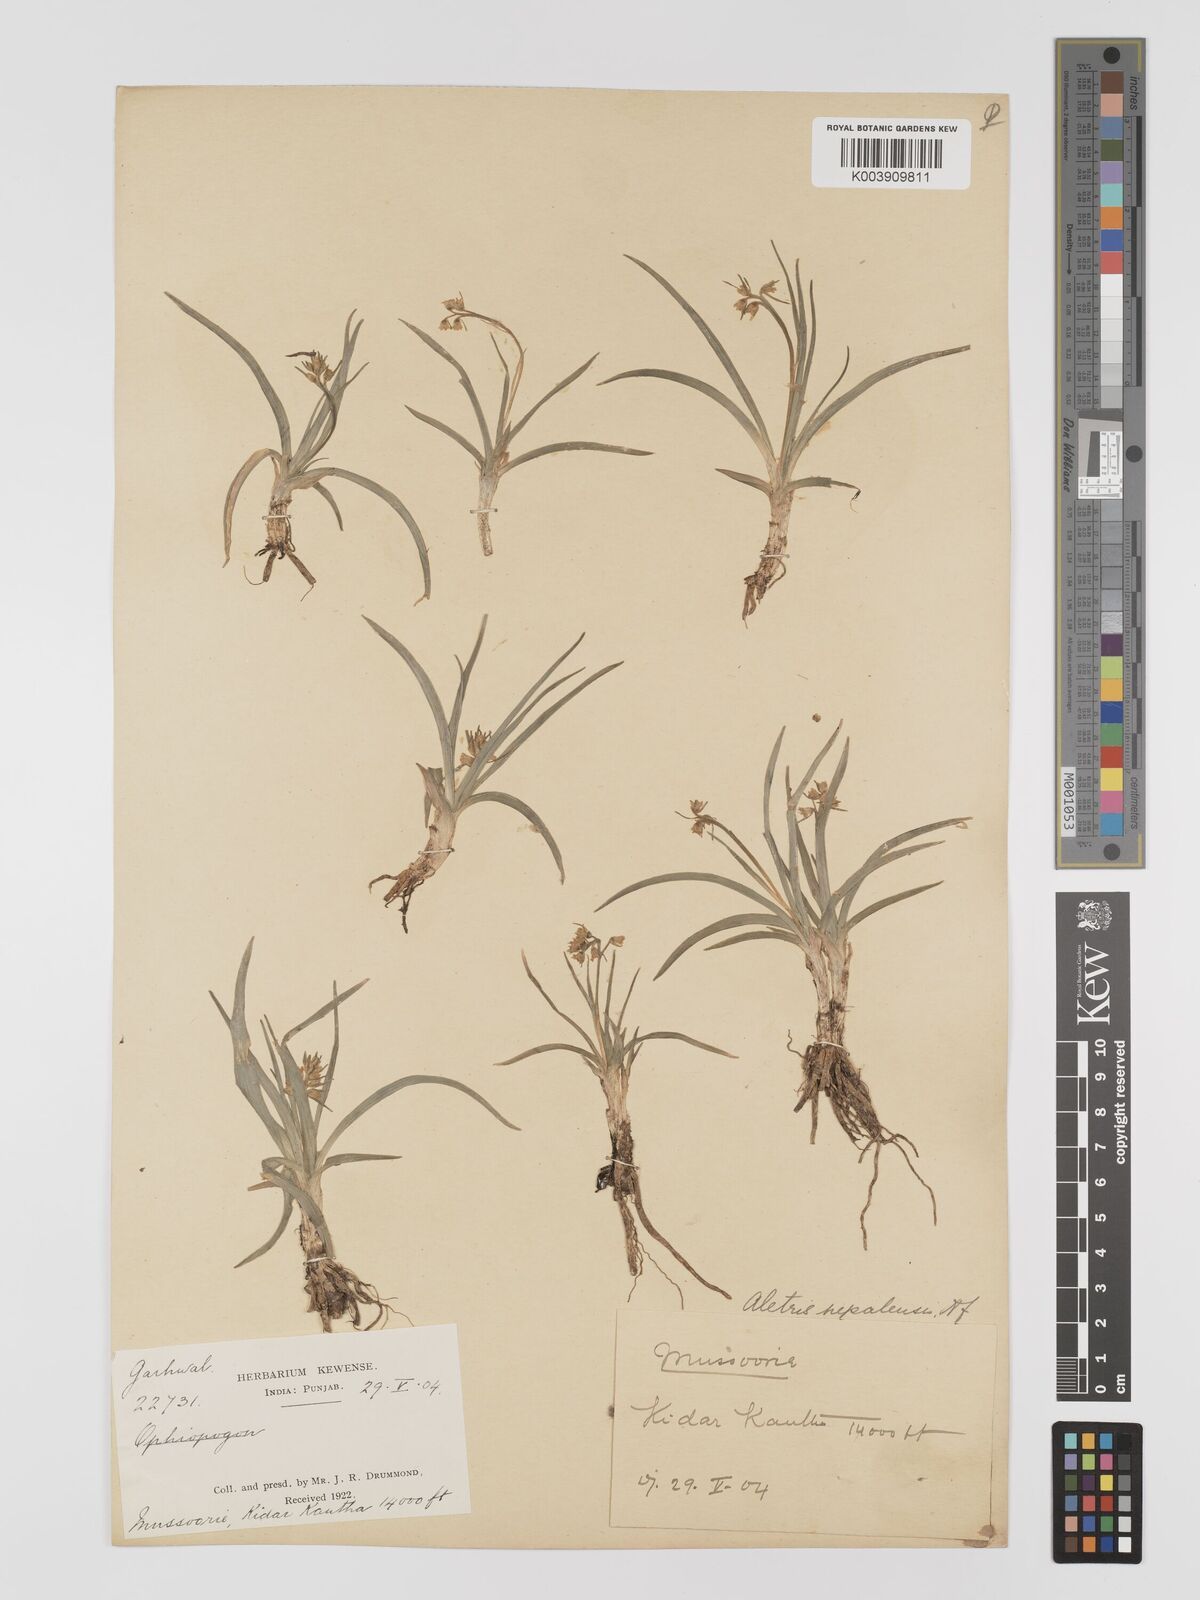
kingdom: Plantae
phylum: Tracheophyta
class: Liliopsida
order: Dioscoreales
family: Nartheciaceae
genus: Aletris
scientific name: Aletris pauciflora
